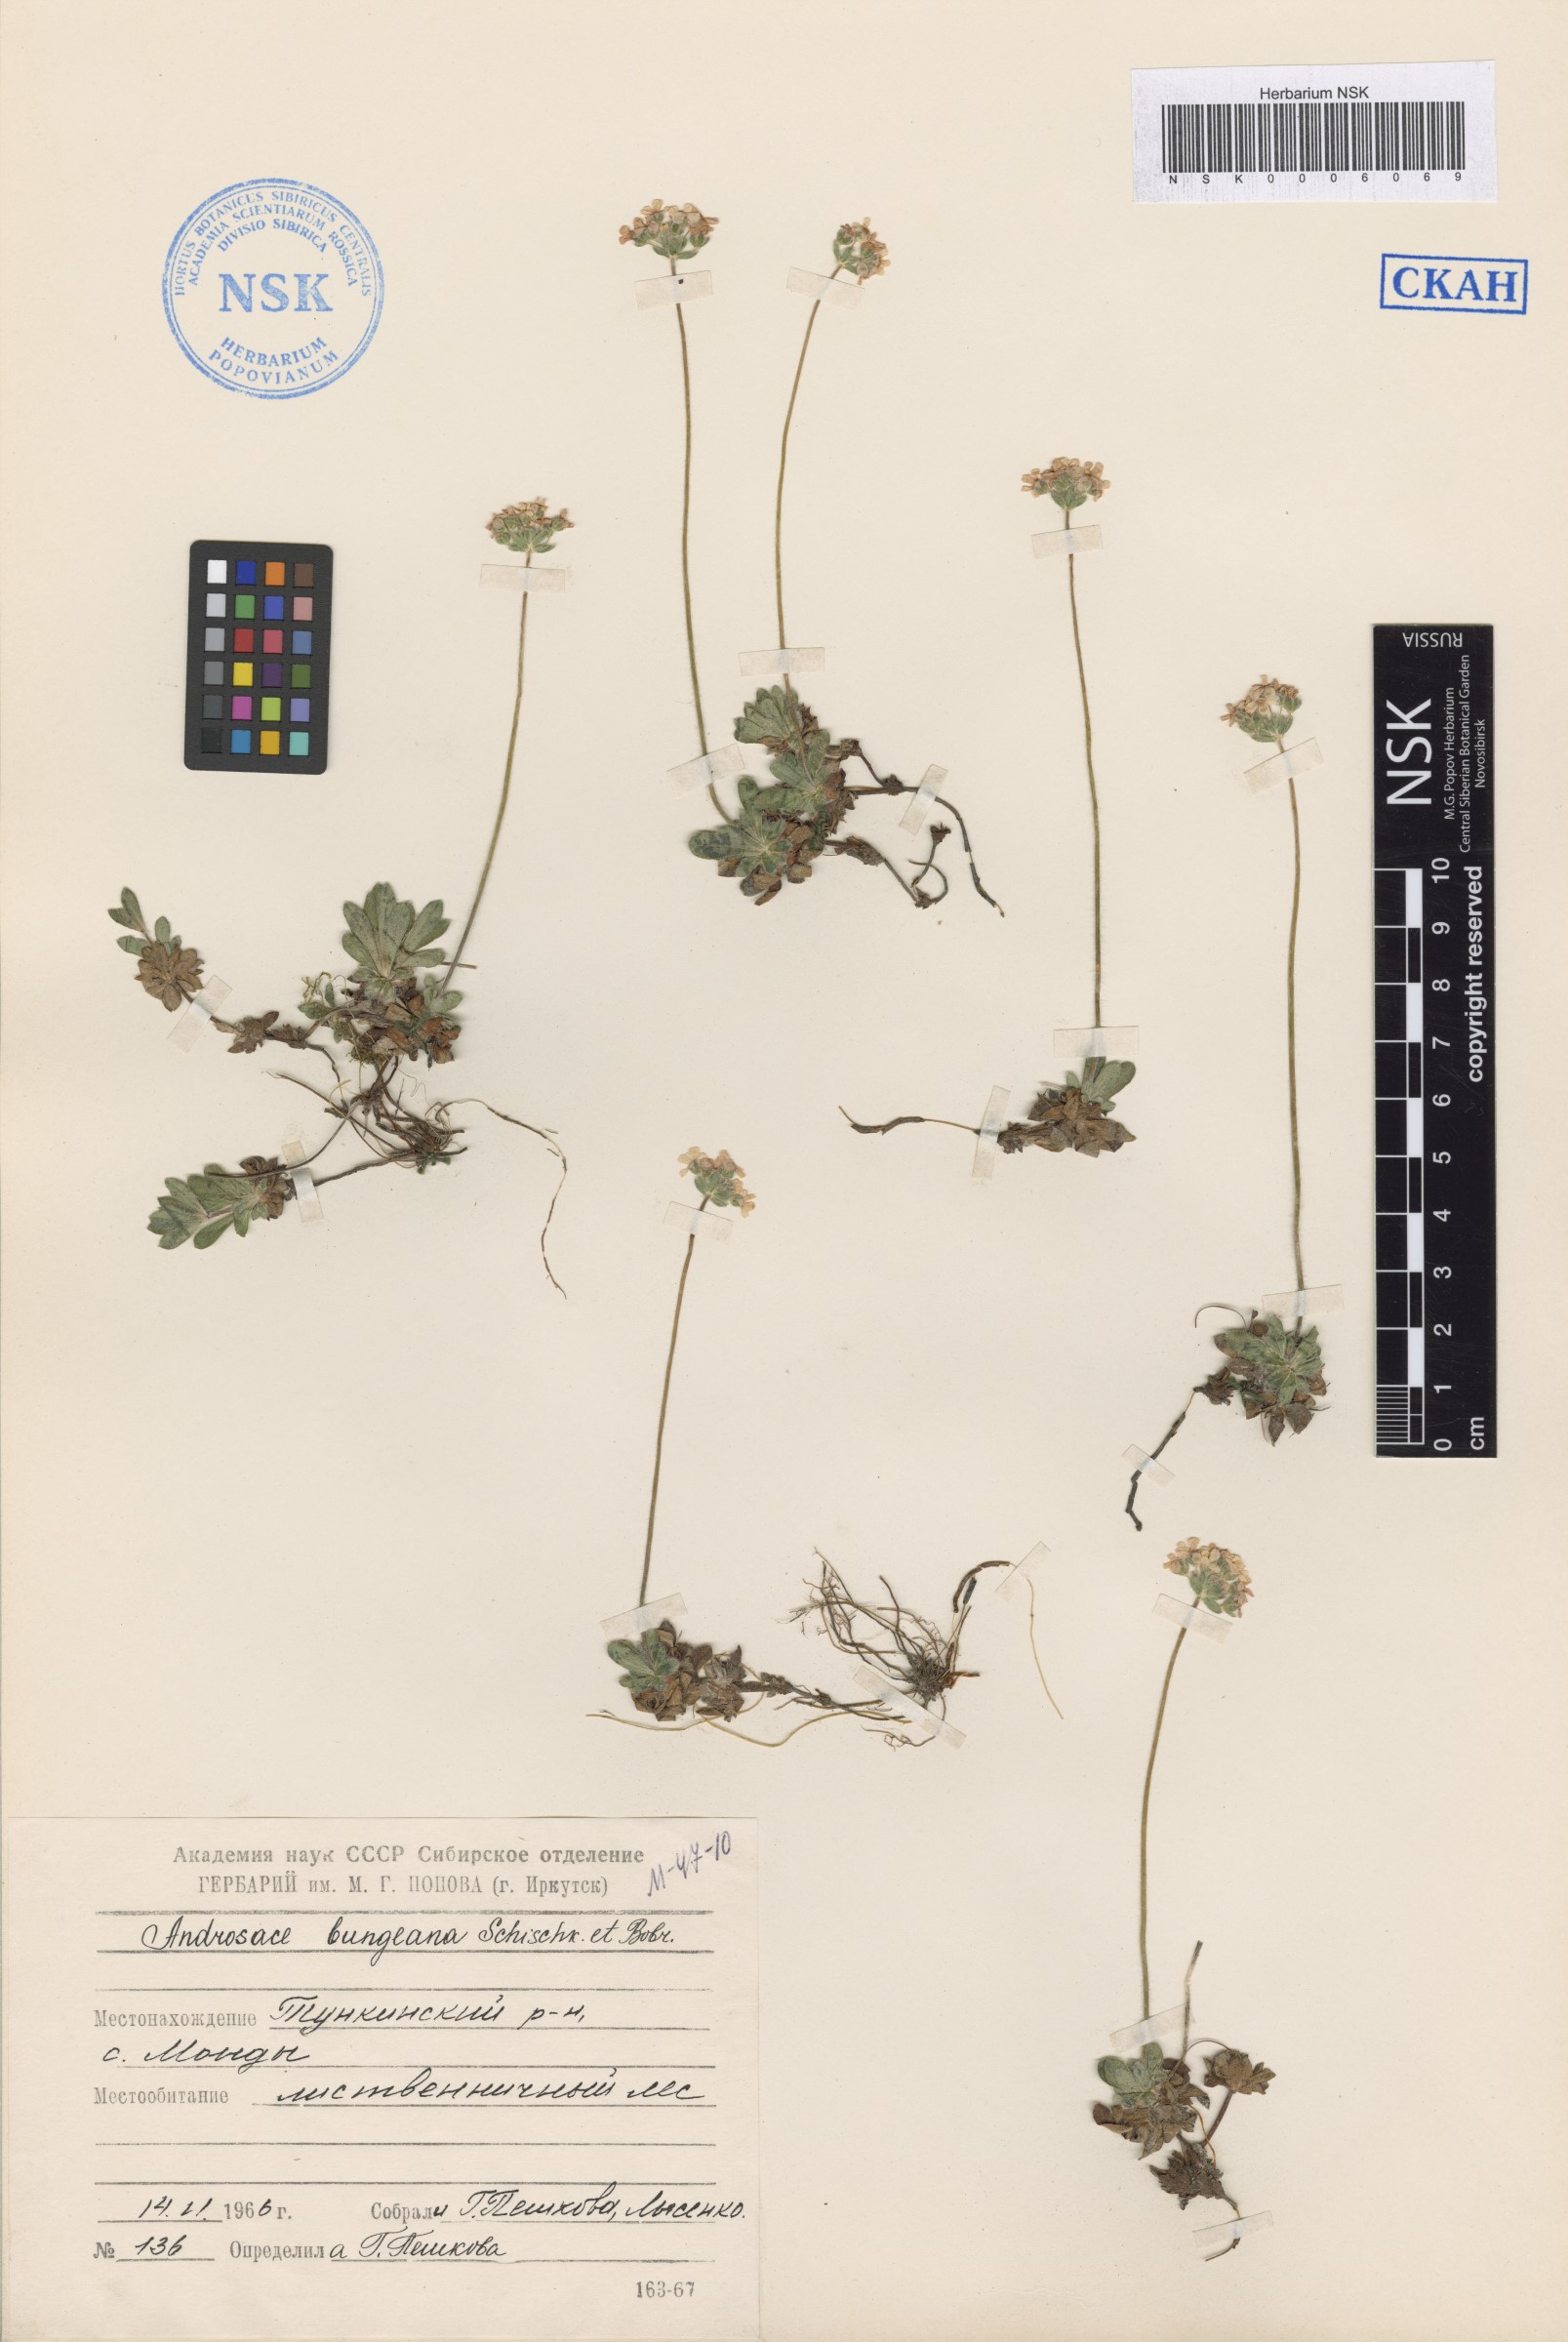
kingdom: Plantae
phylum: Tracheophyta
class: Magnoliopsida
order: Ericales
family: Primulaceae
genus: Androsace
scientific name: Androsace bungeana
